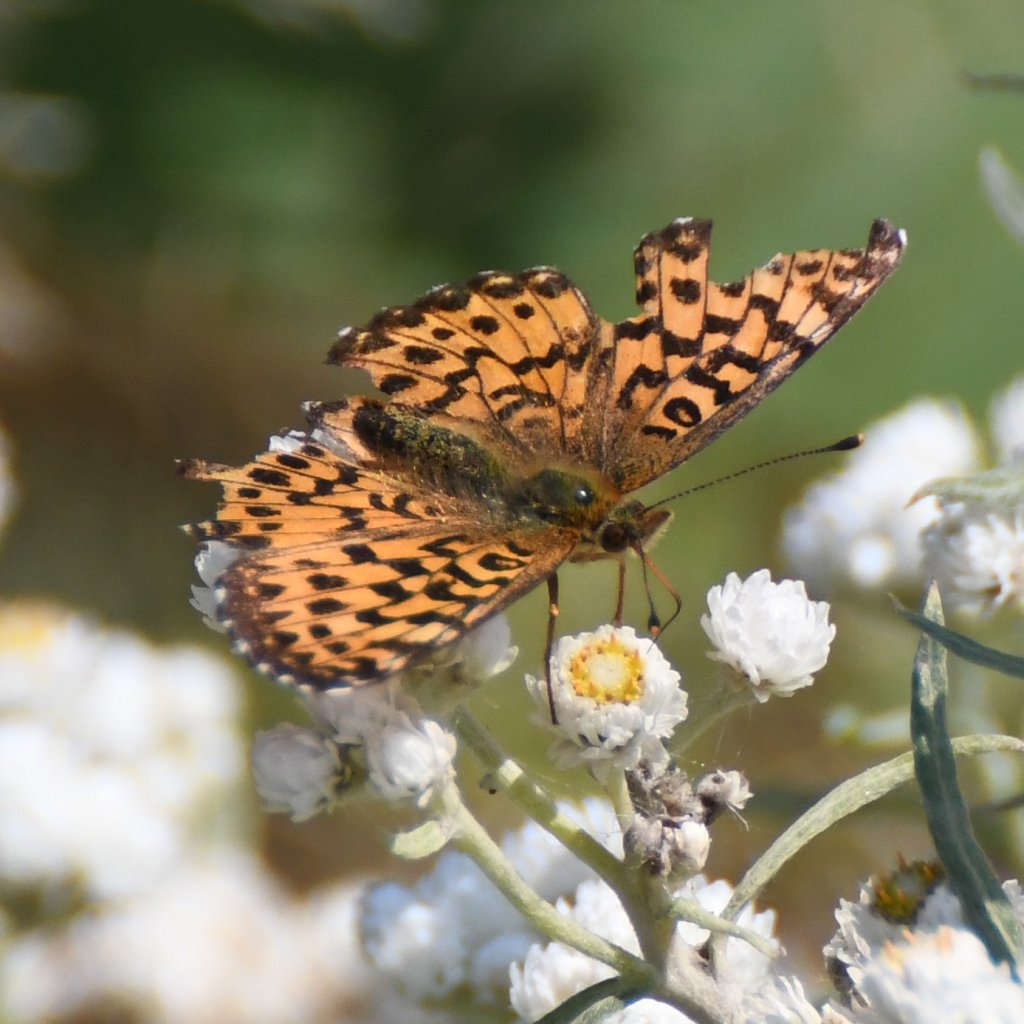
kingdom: Animalia
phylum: Arthropoda
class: Insecta
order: Lepidoptera
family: Nymphalidae
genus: Boloria
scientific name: Boloria chariclea
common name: Arctic Fritillary
